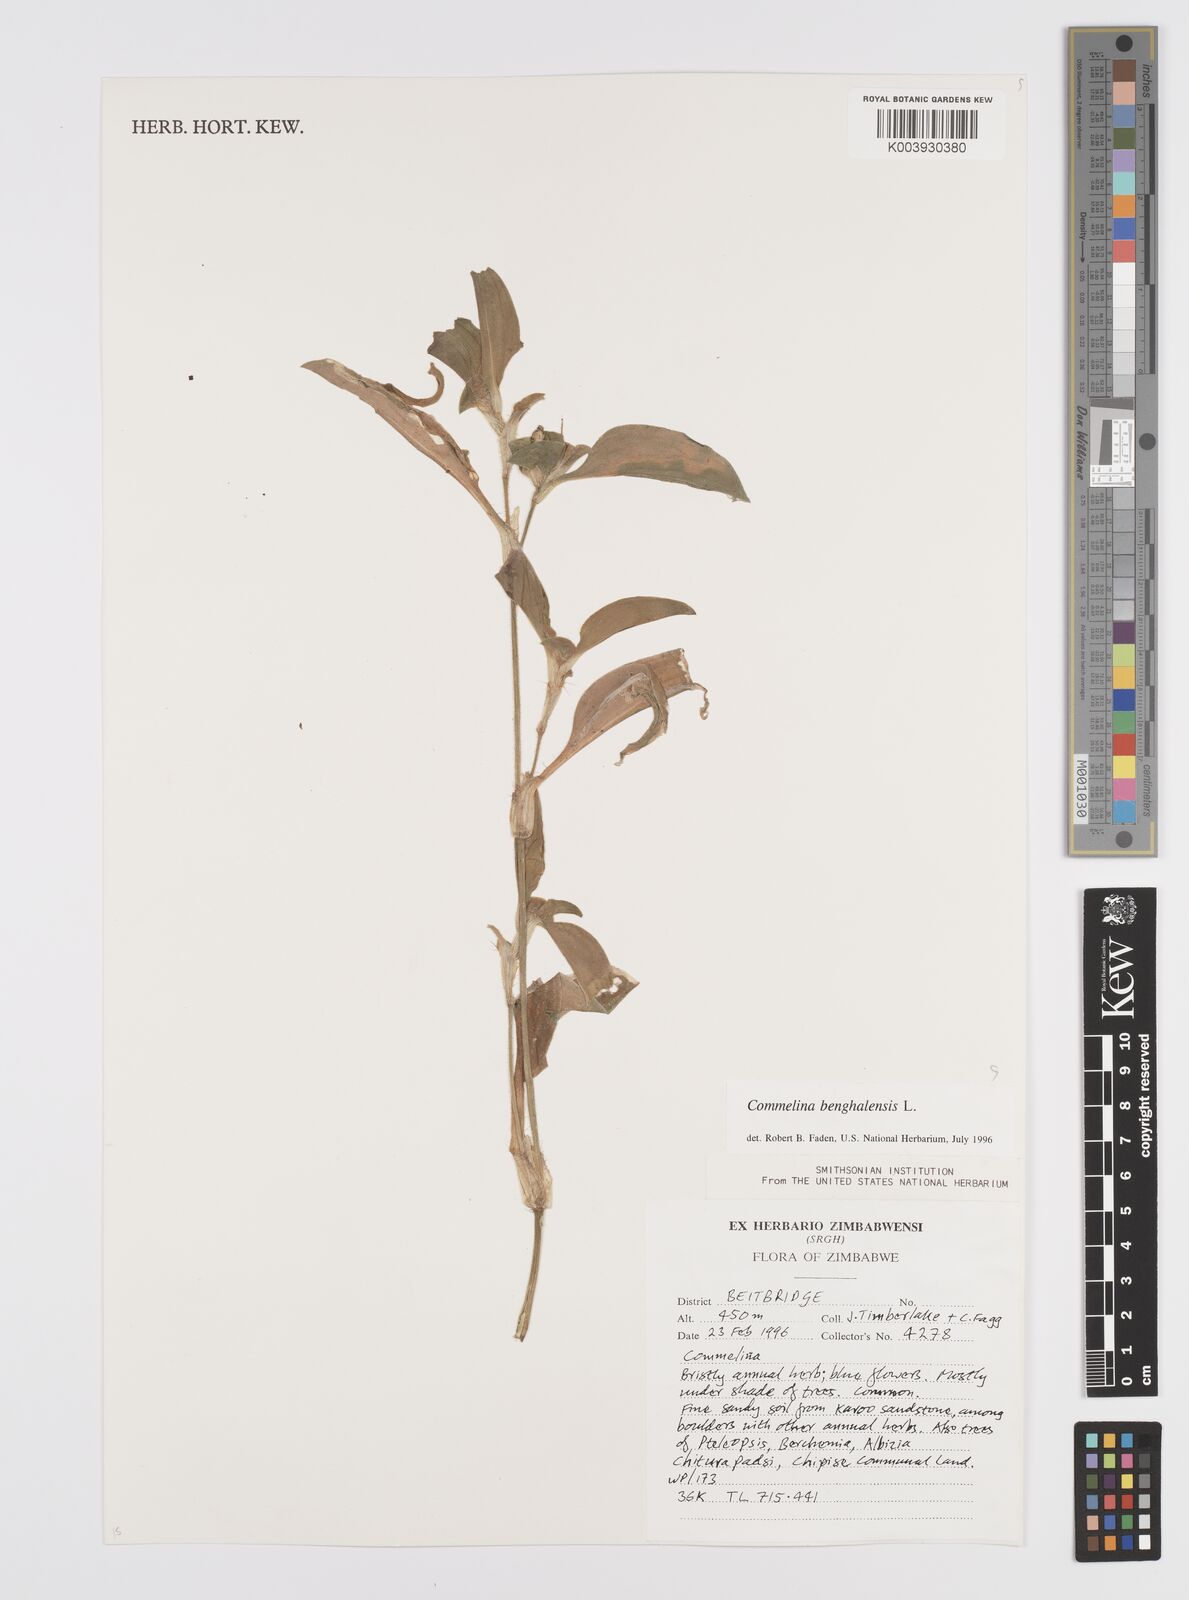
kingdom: Plantae
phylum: Tracheophyta
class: Liliopsida
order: Commelinales
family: Commelinaceae
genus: Commelina
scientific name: Commelina benghalensis
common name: Jio
